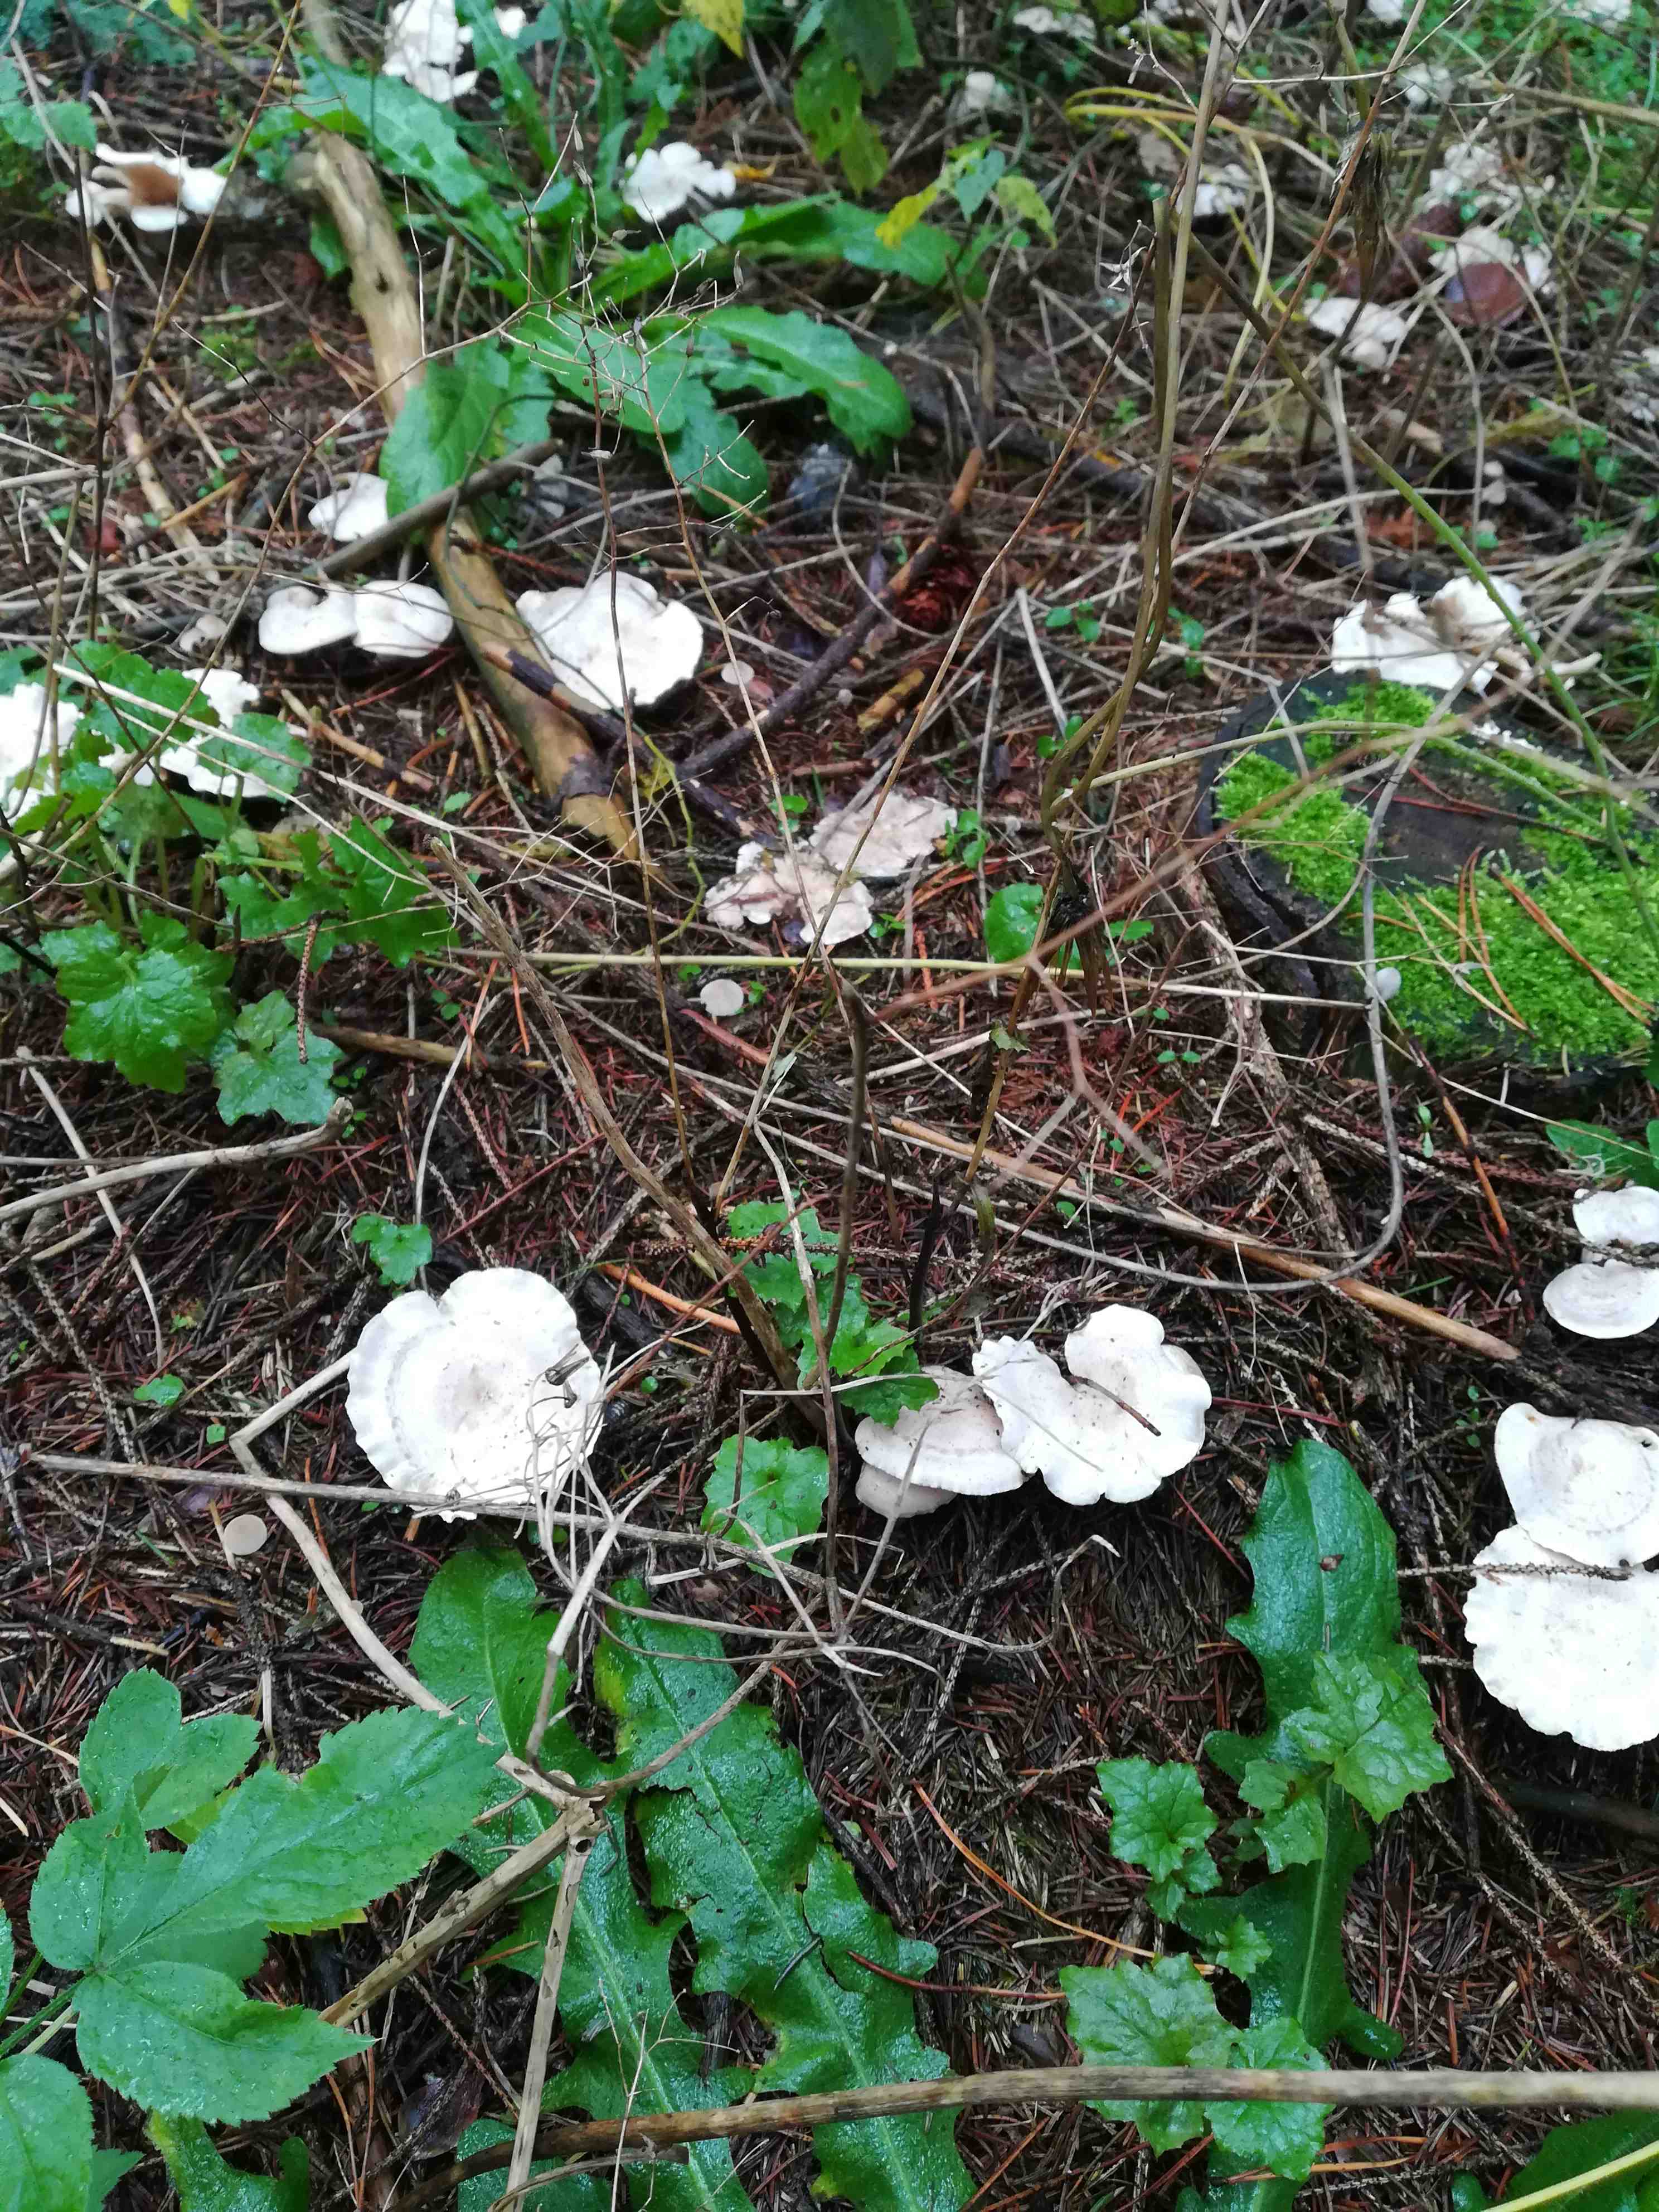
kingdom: Fungi
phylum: Basidiomycota
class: Agaricomycetes
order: Agaricales
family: Tricholomataceae
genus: Clitocybe
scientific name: Clitocybe phyllophila
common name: løv-tragthat
